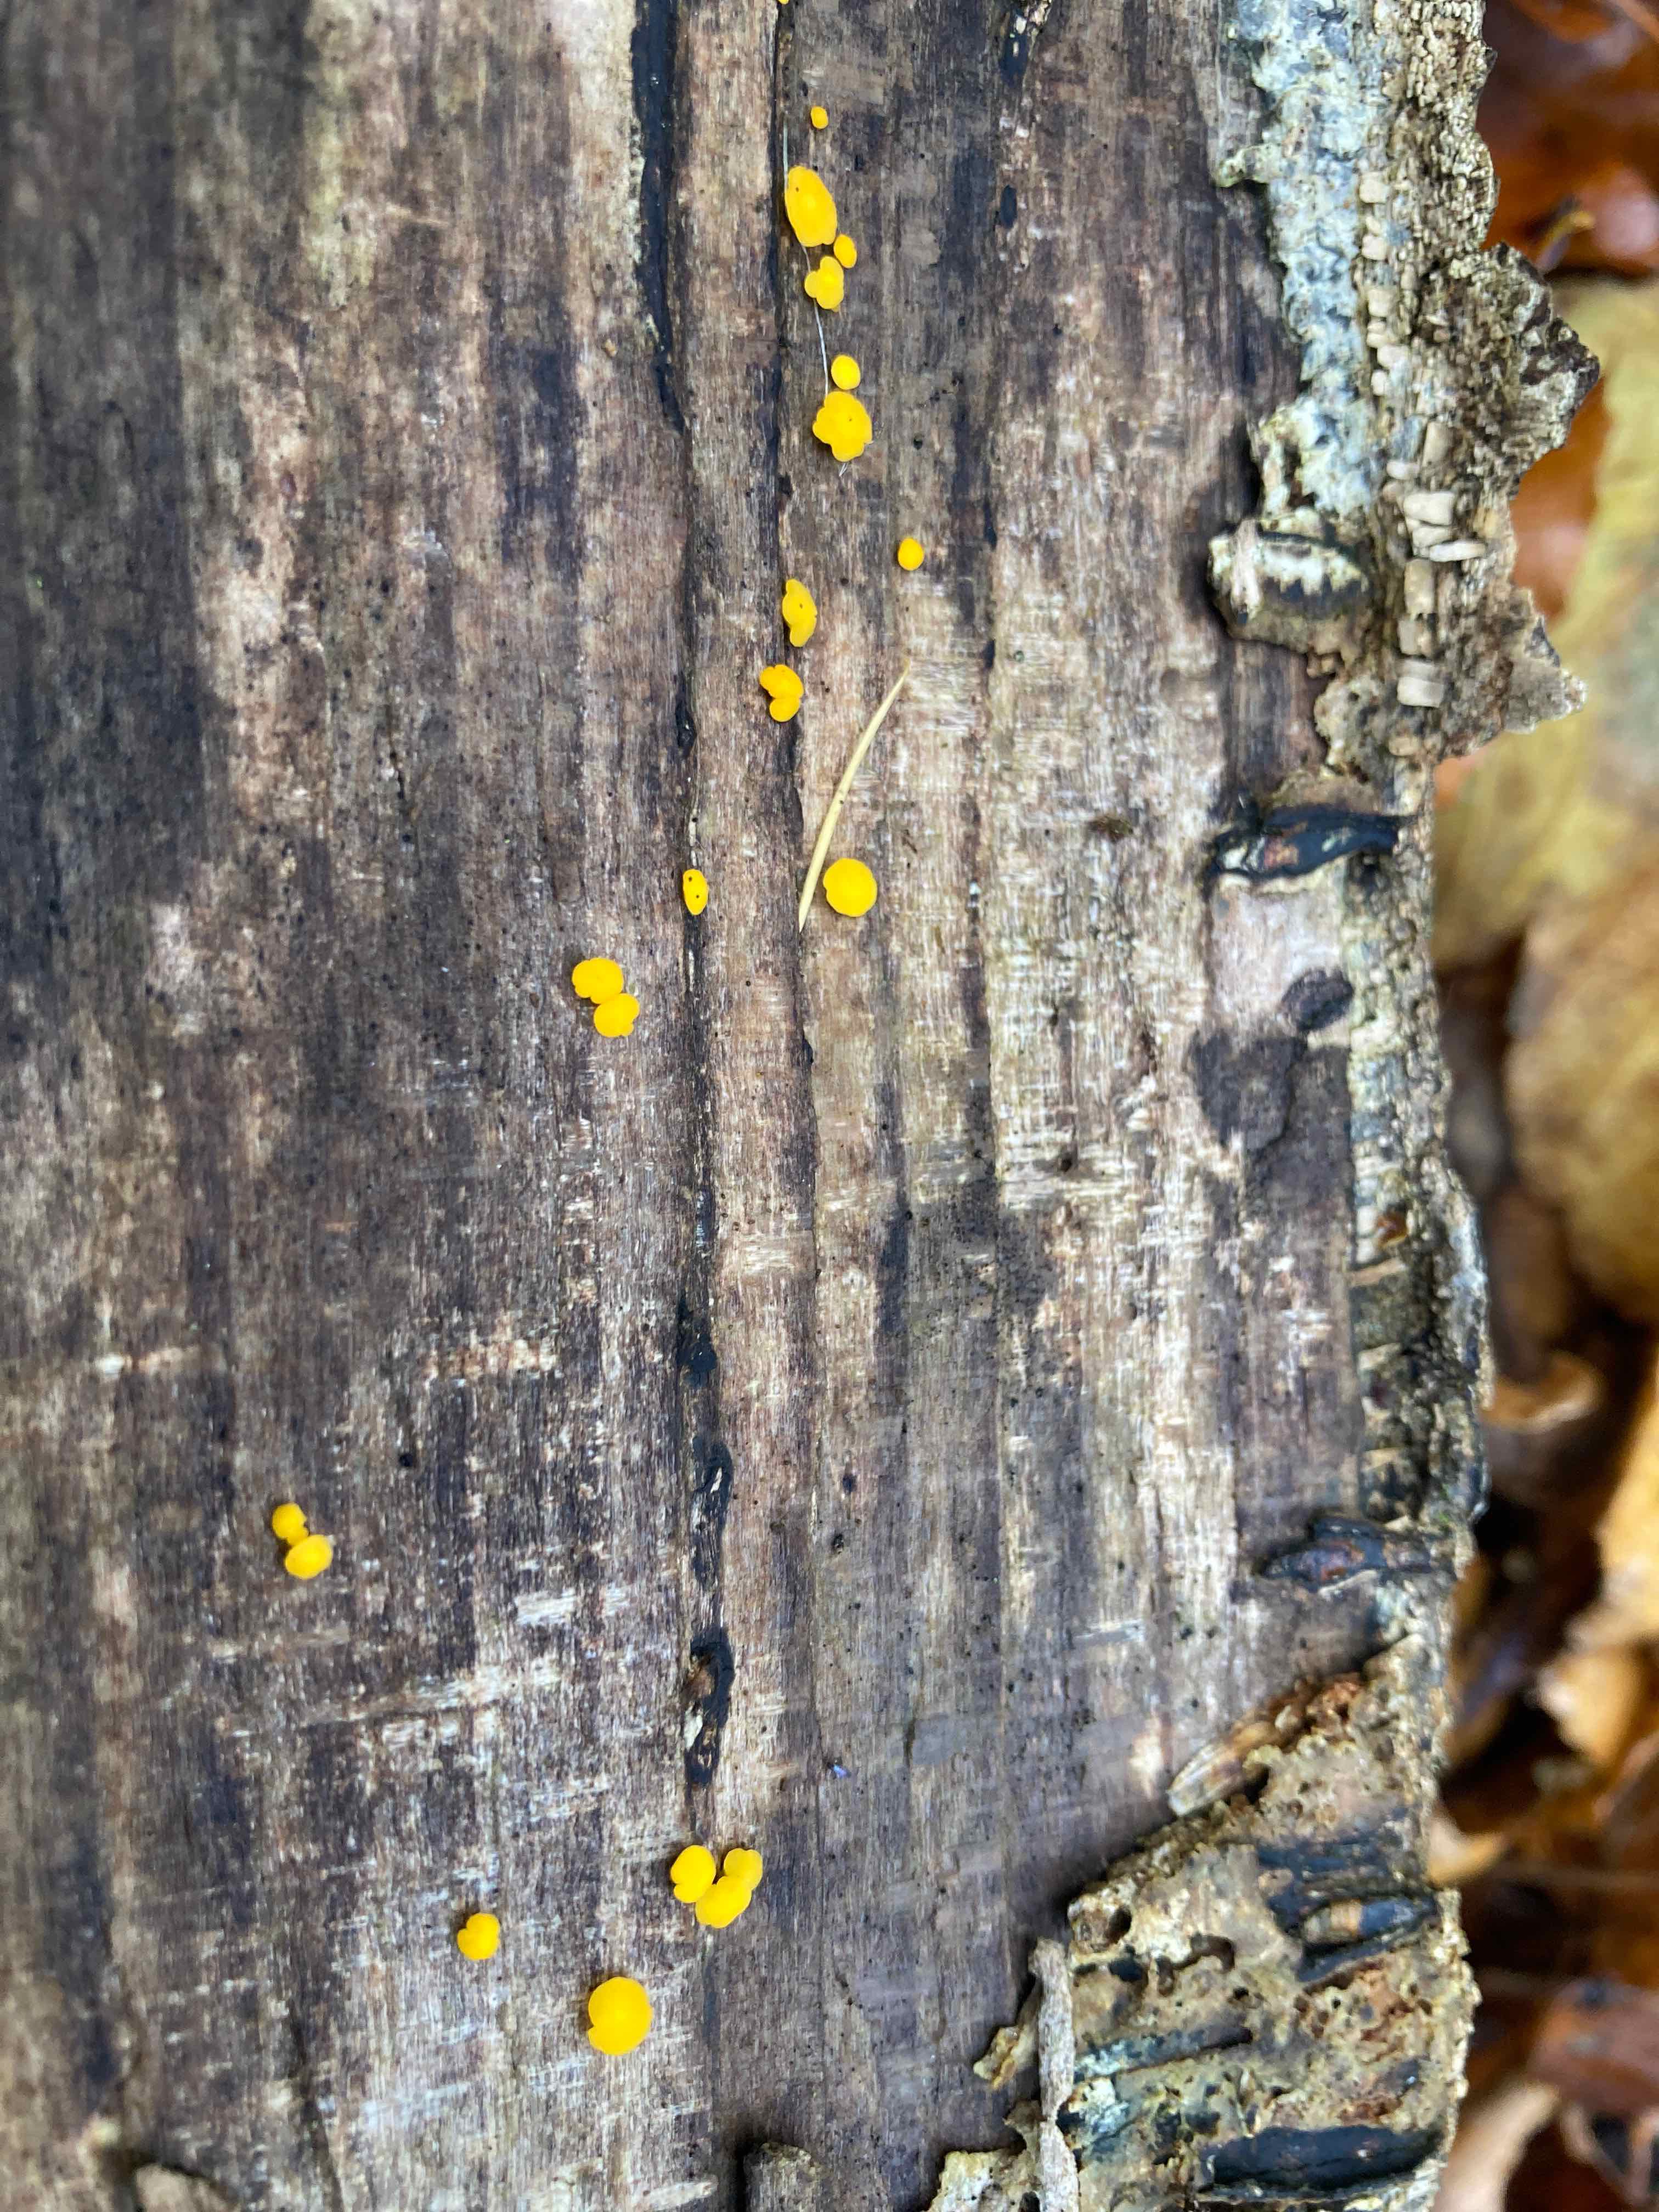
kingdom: Fungi
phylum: Ascomycota
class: Leotiomycetes
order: Helotiales
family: Pezizellaceae
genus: Calycina
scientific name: Calycina citrina
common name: almindelig gulskive
